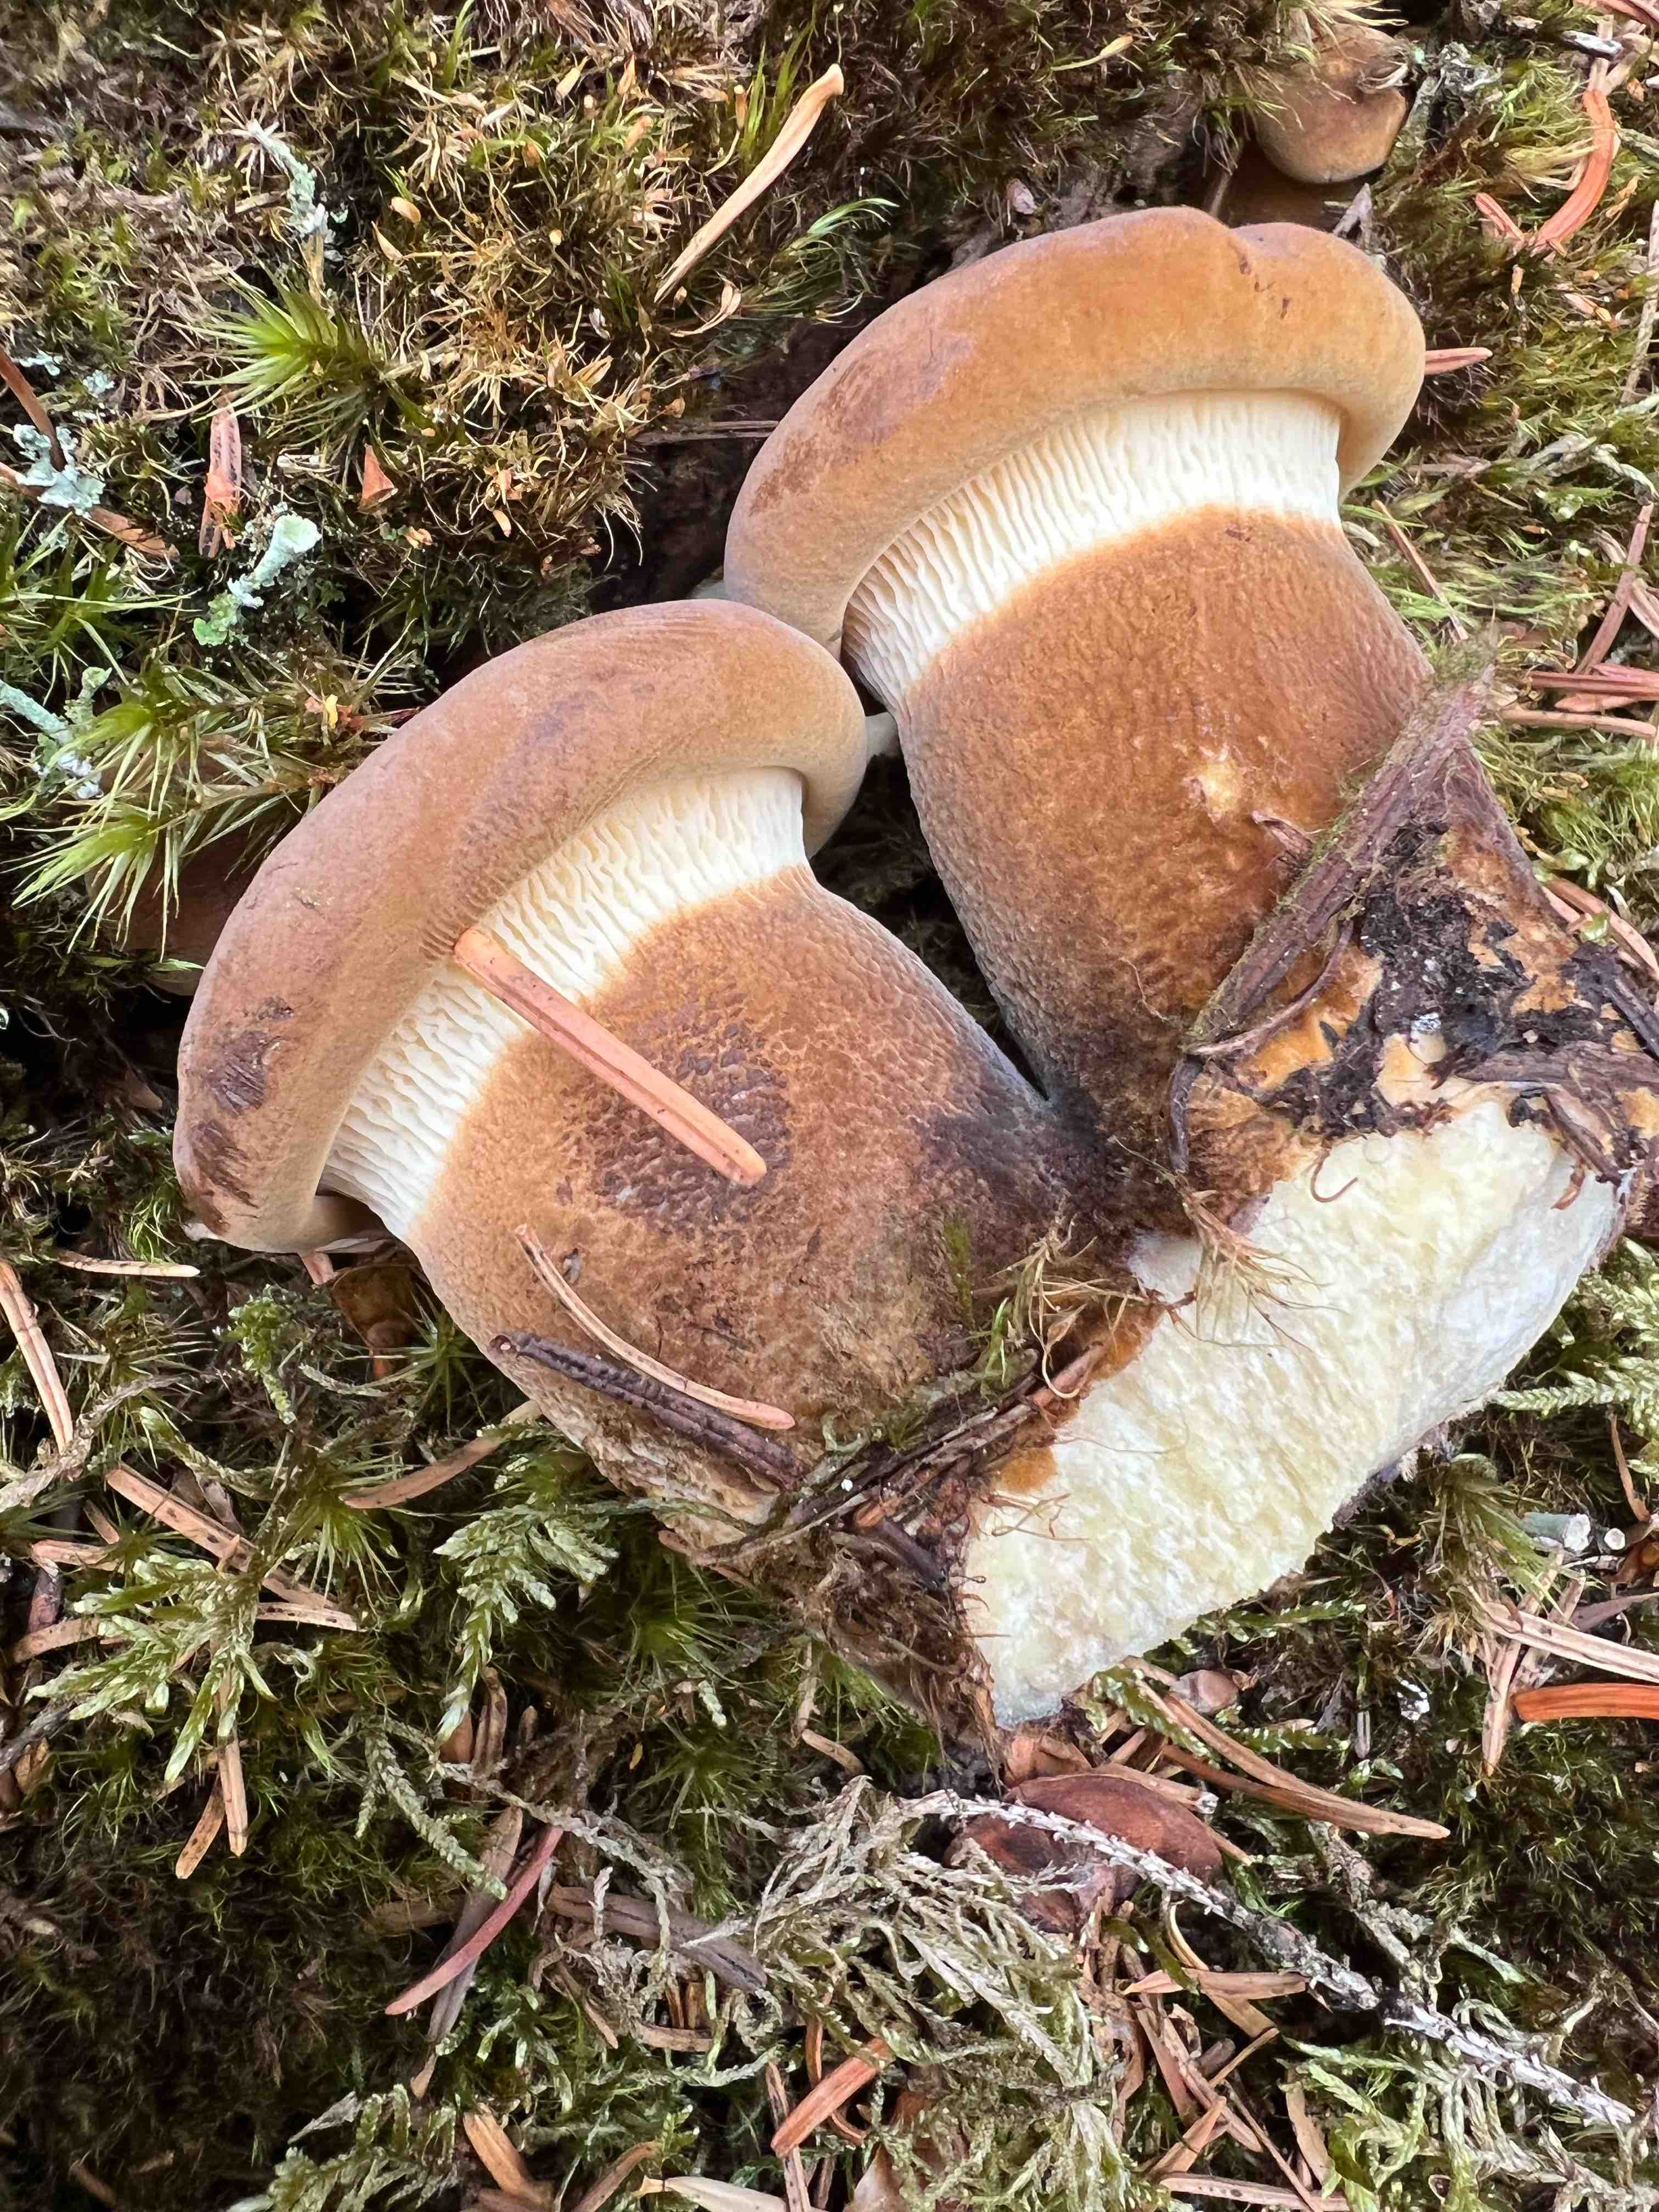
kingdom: Fungi
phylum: Basidiomycota
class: Agaricomycetes
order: Boletales
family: Tapinellaceae
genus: Tapinella
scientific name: Tapinella atrotomentosa
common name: sortfiltet viftesvamp
